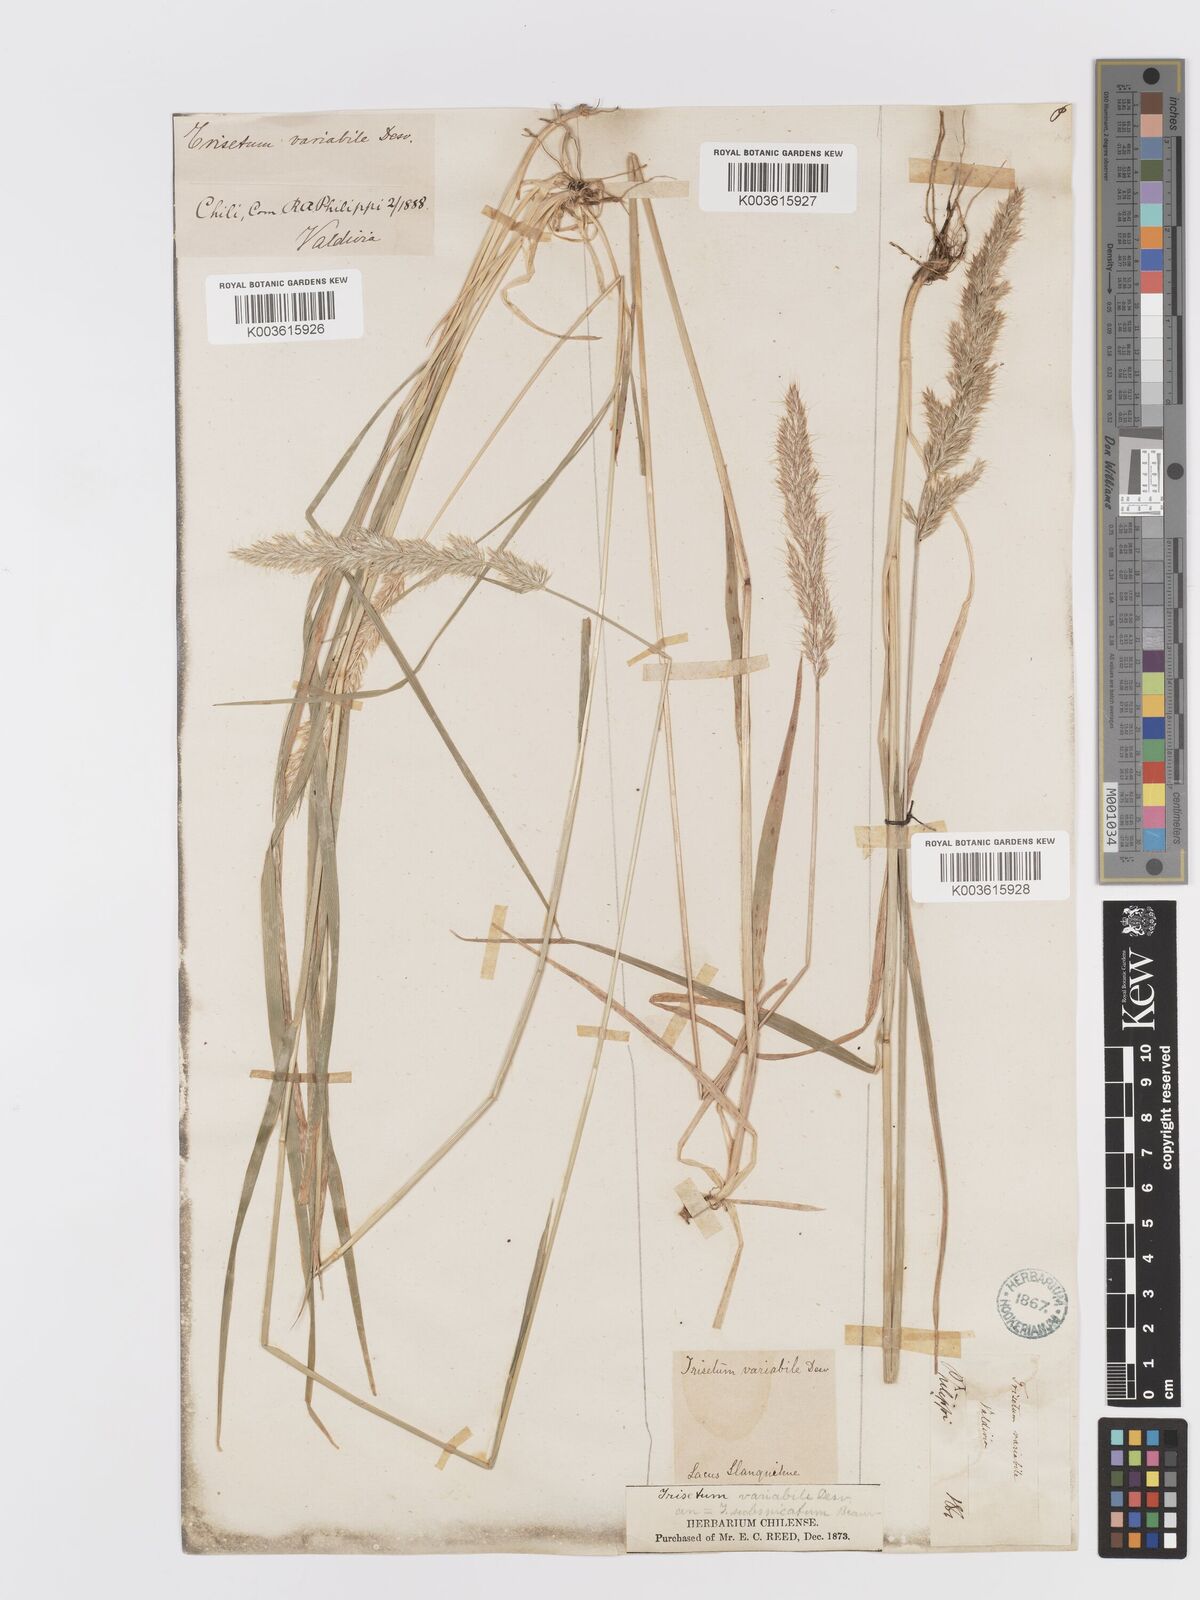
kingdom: Plantae
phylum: Tracheophyta
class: Liliopsida
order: Poales
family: Poaceae
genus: Koeleria
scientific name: Koeleria spicata
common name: Mountain trisetum
